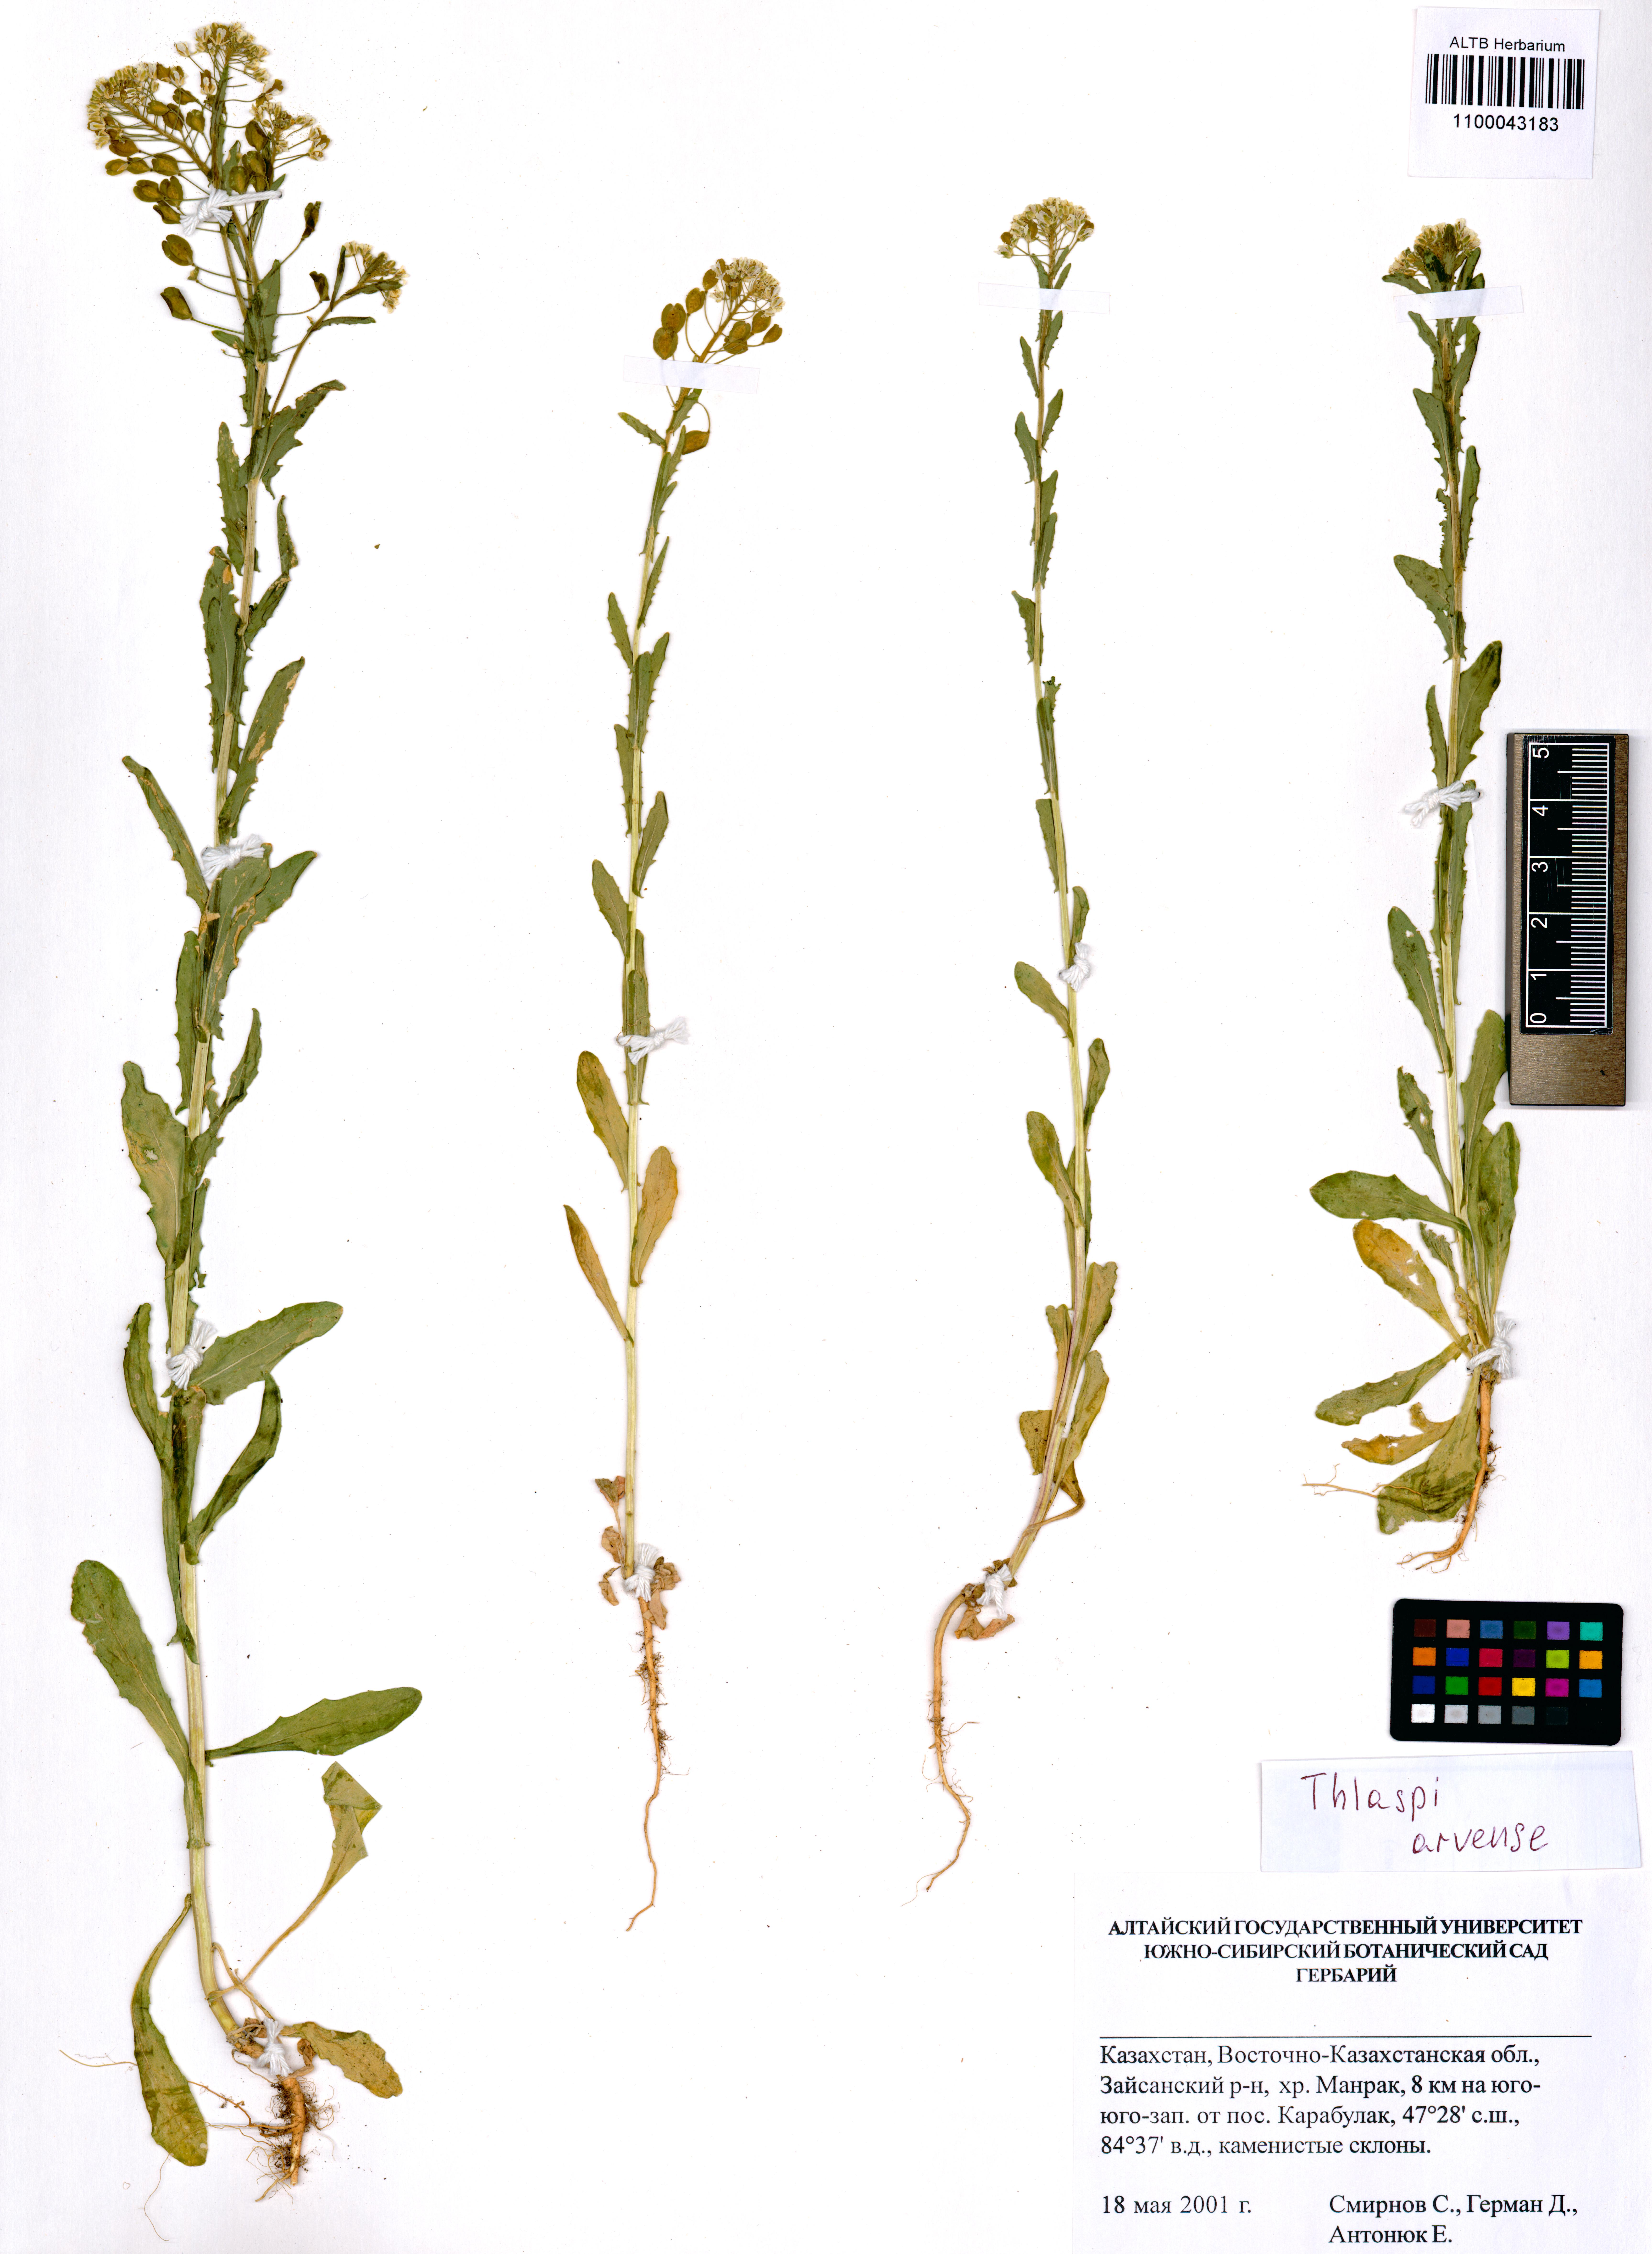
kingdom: Plantae
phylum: Tracheophyta
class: Magnoliopsida
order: Brassicales
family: Brassicaceae
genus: Thlaspi
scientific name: Thlaspi arvense
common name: Field pennycress
